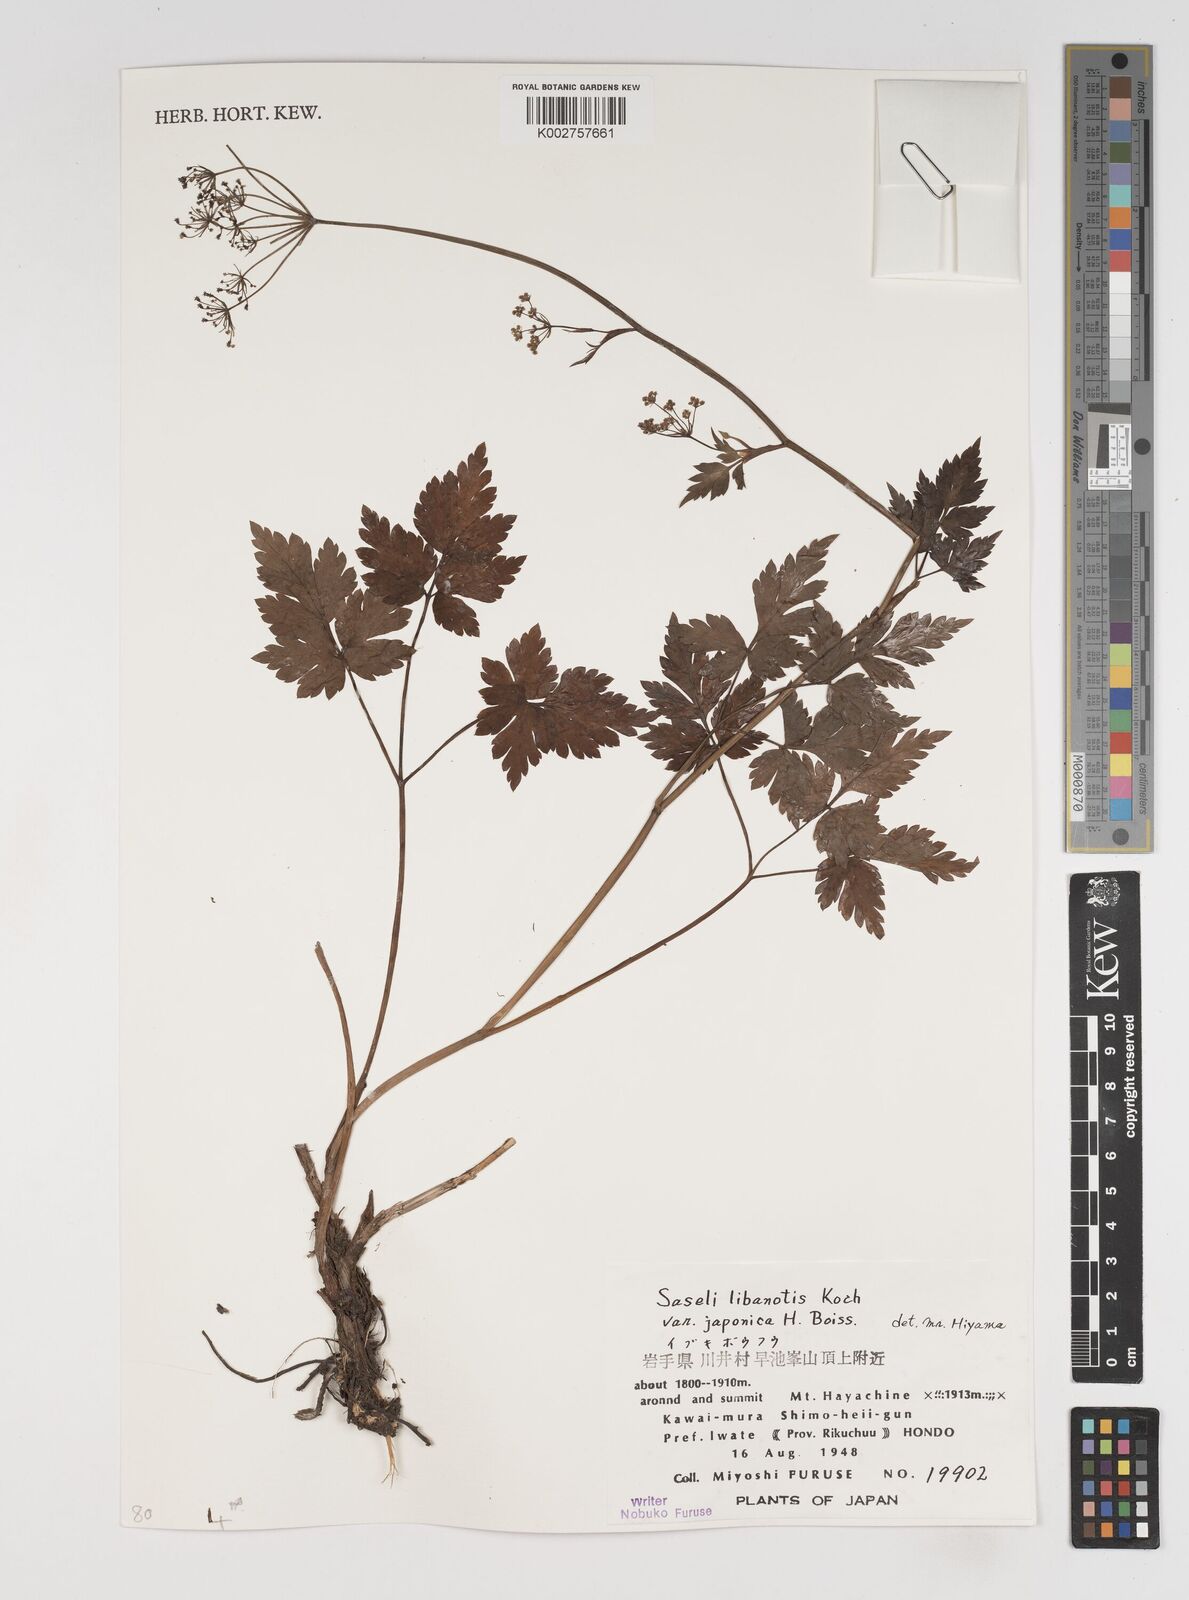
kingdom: Plantae
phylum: Tracheophyta
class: Magnoliopsida
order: Apiales
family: Apiaceae
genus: Seseli
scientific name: Seseli libanotis
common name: Mooncarrot
